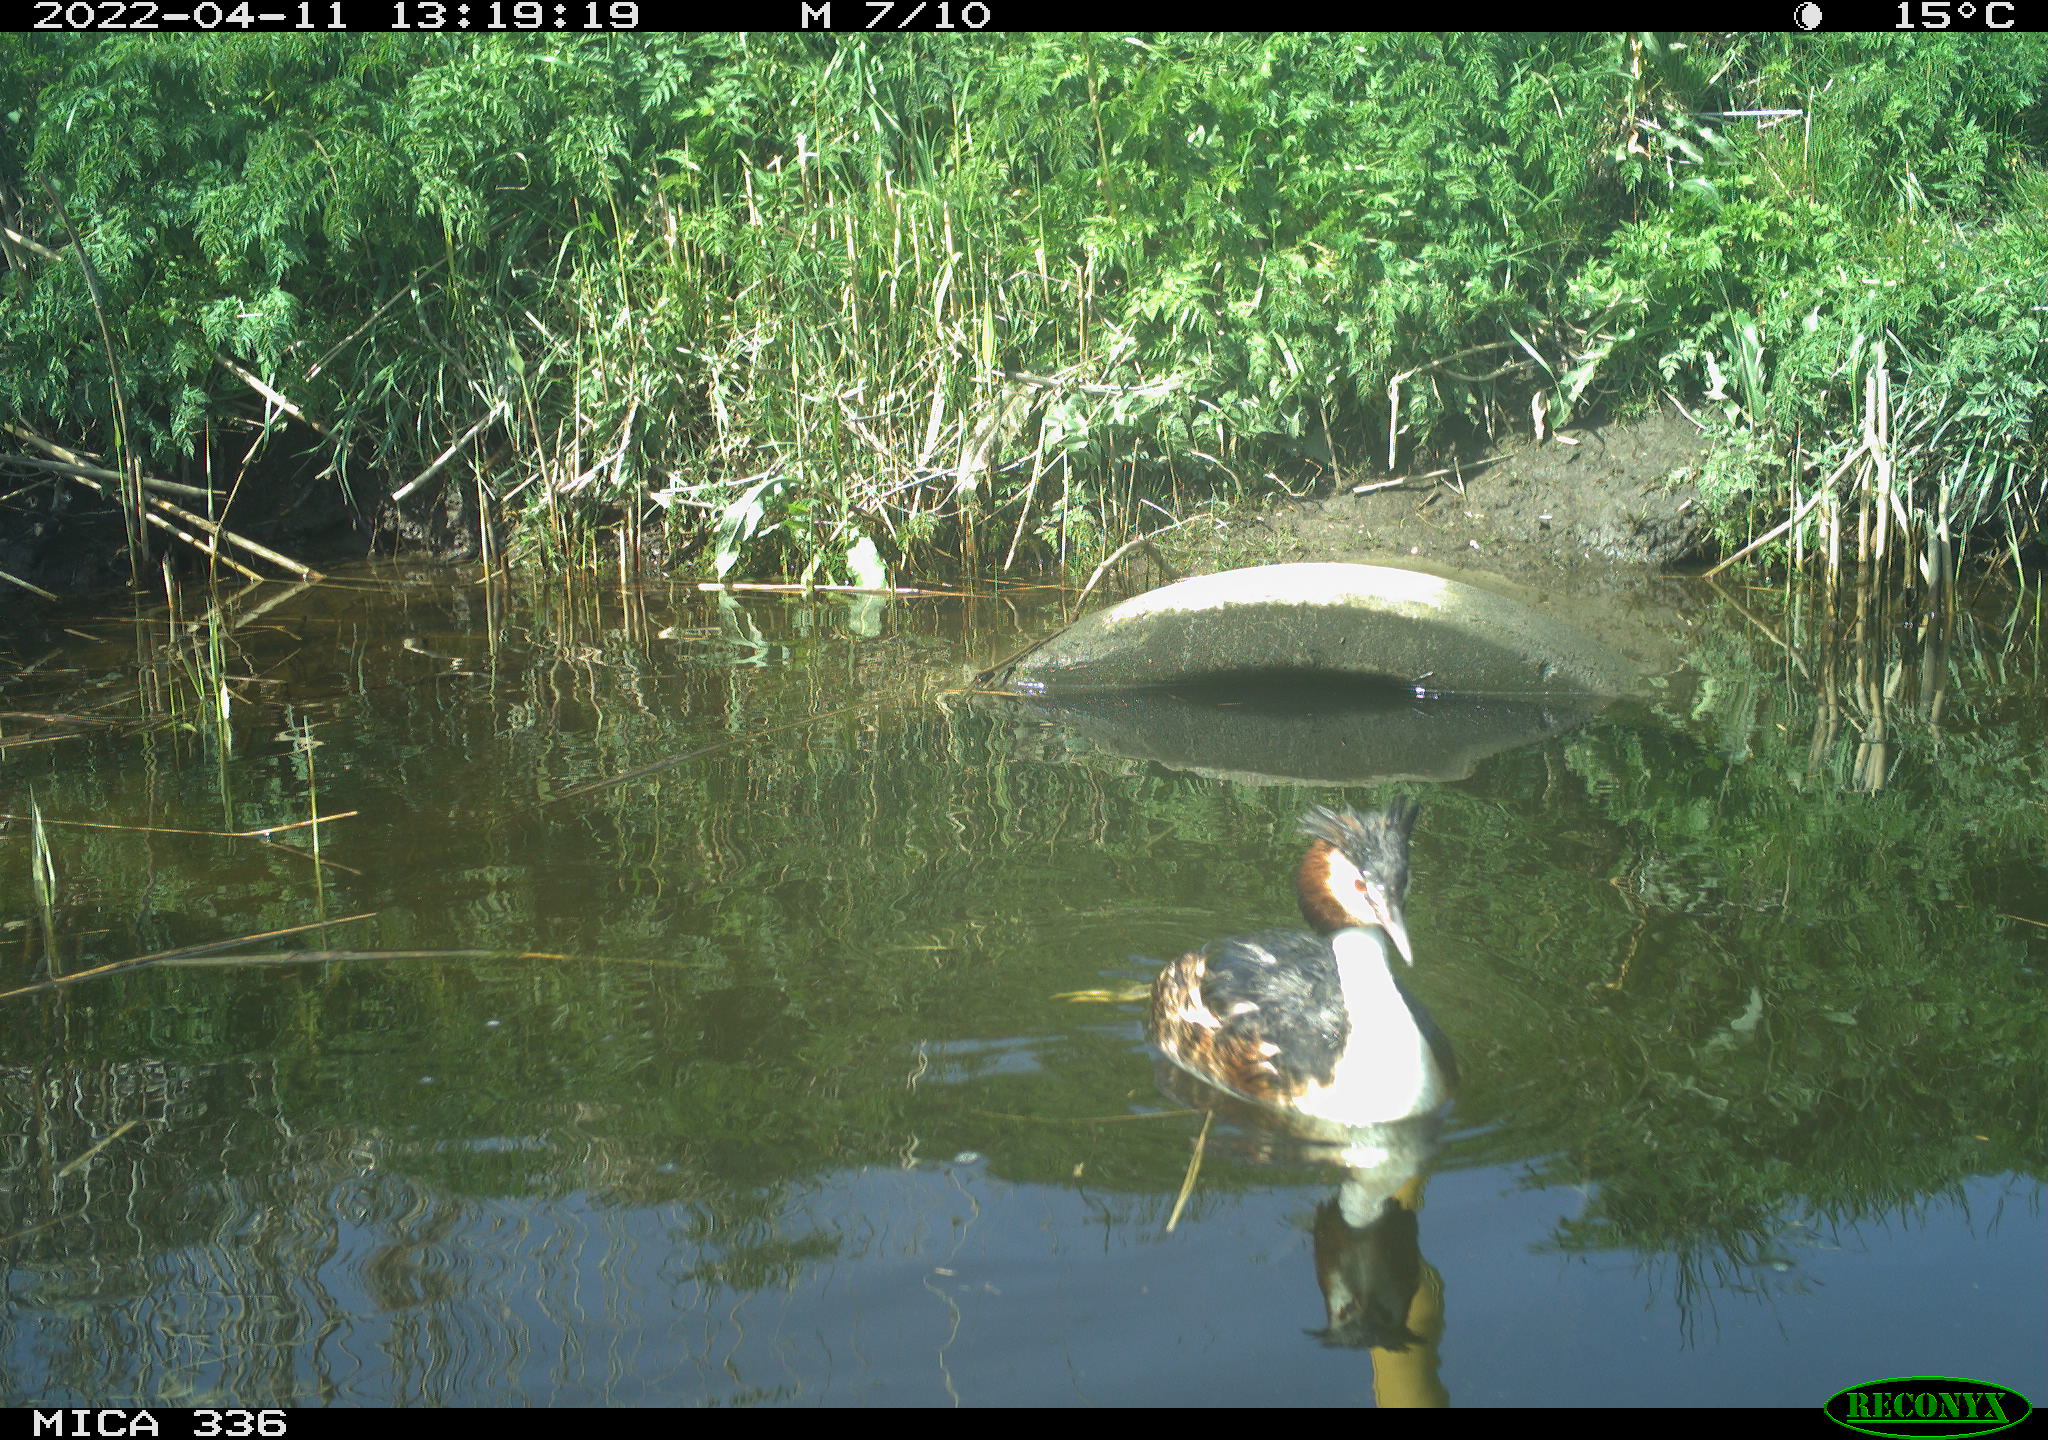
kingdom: Animalia
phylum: Chordata
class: Aves
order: Podicipediformes
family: Podicipedidae
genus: Podiceps
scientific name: Podiceps cristatus
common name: Great crested grebe
